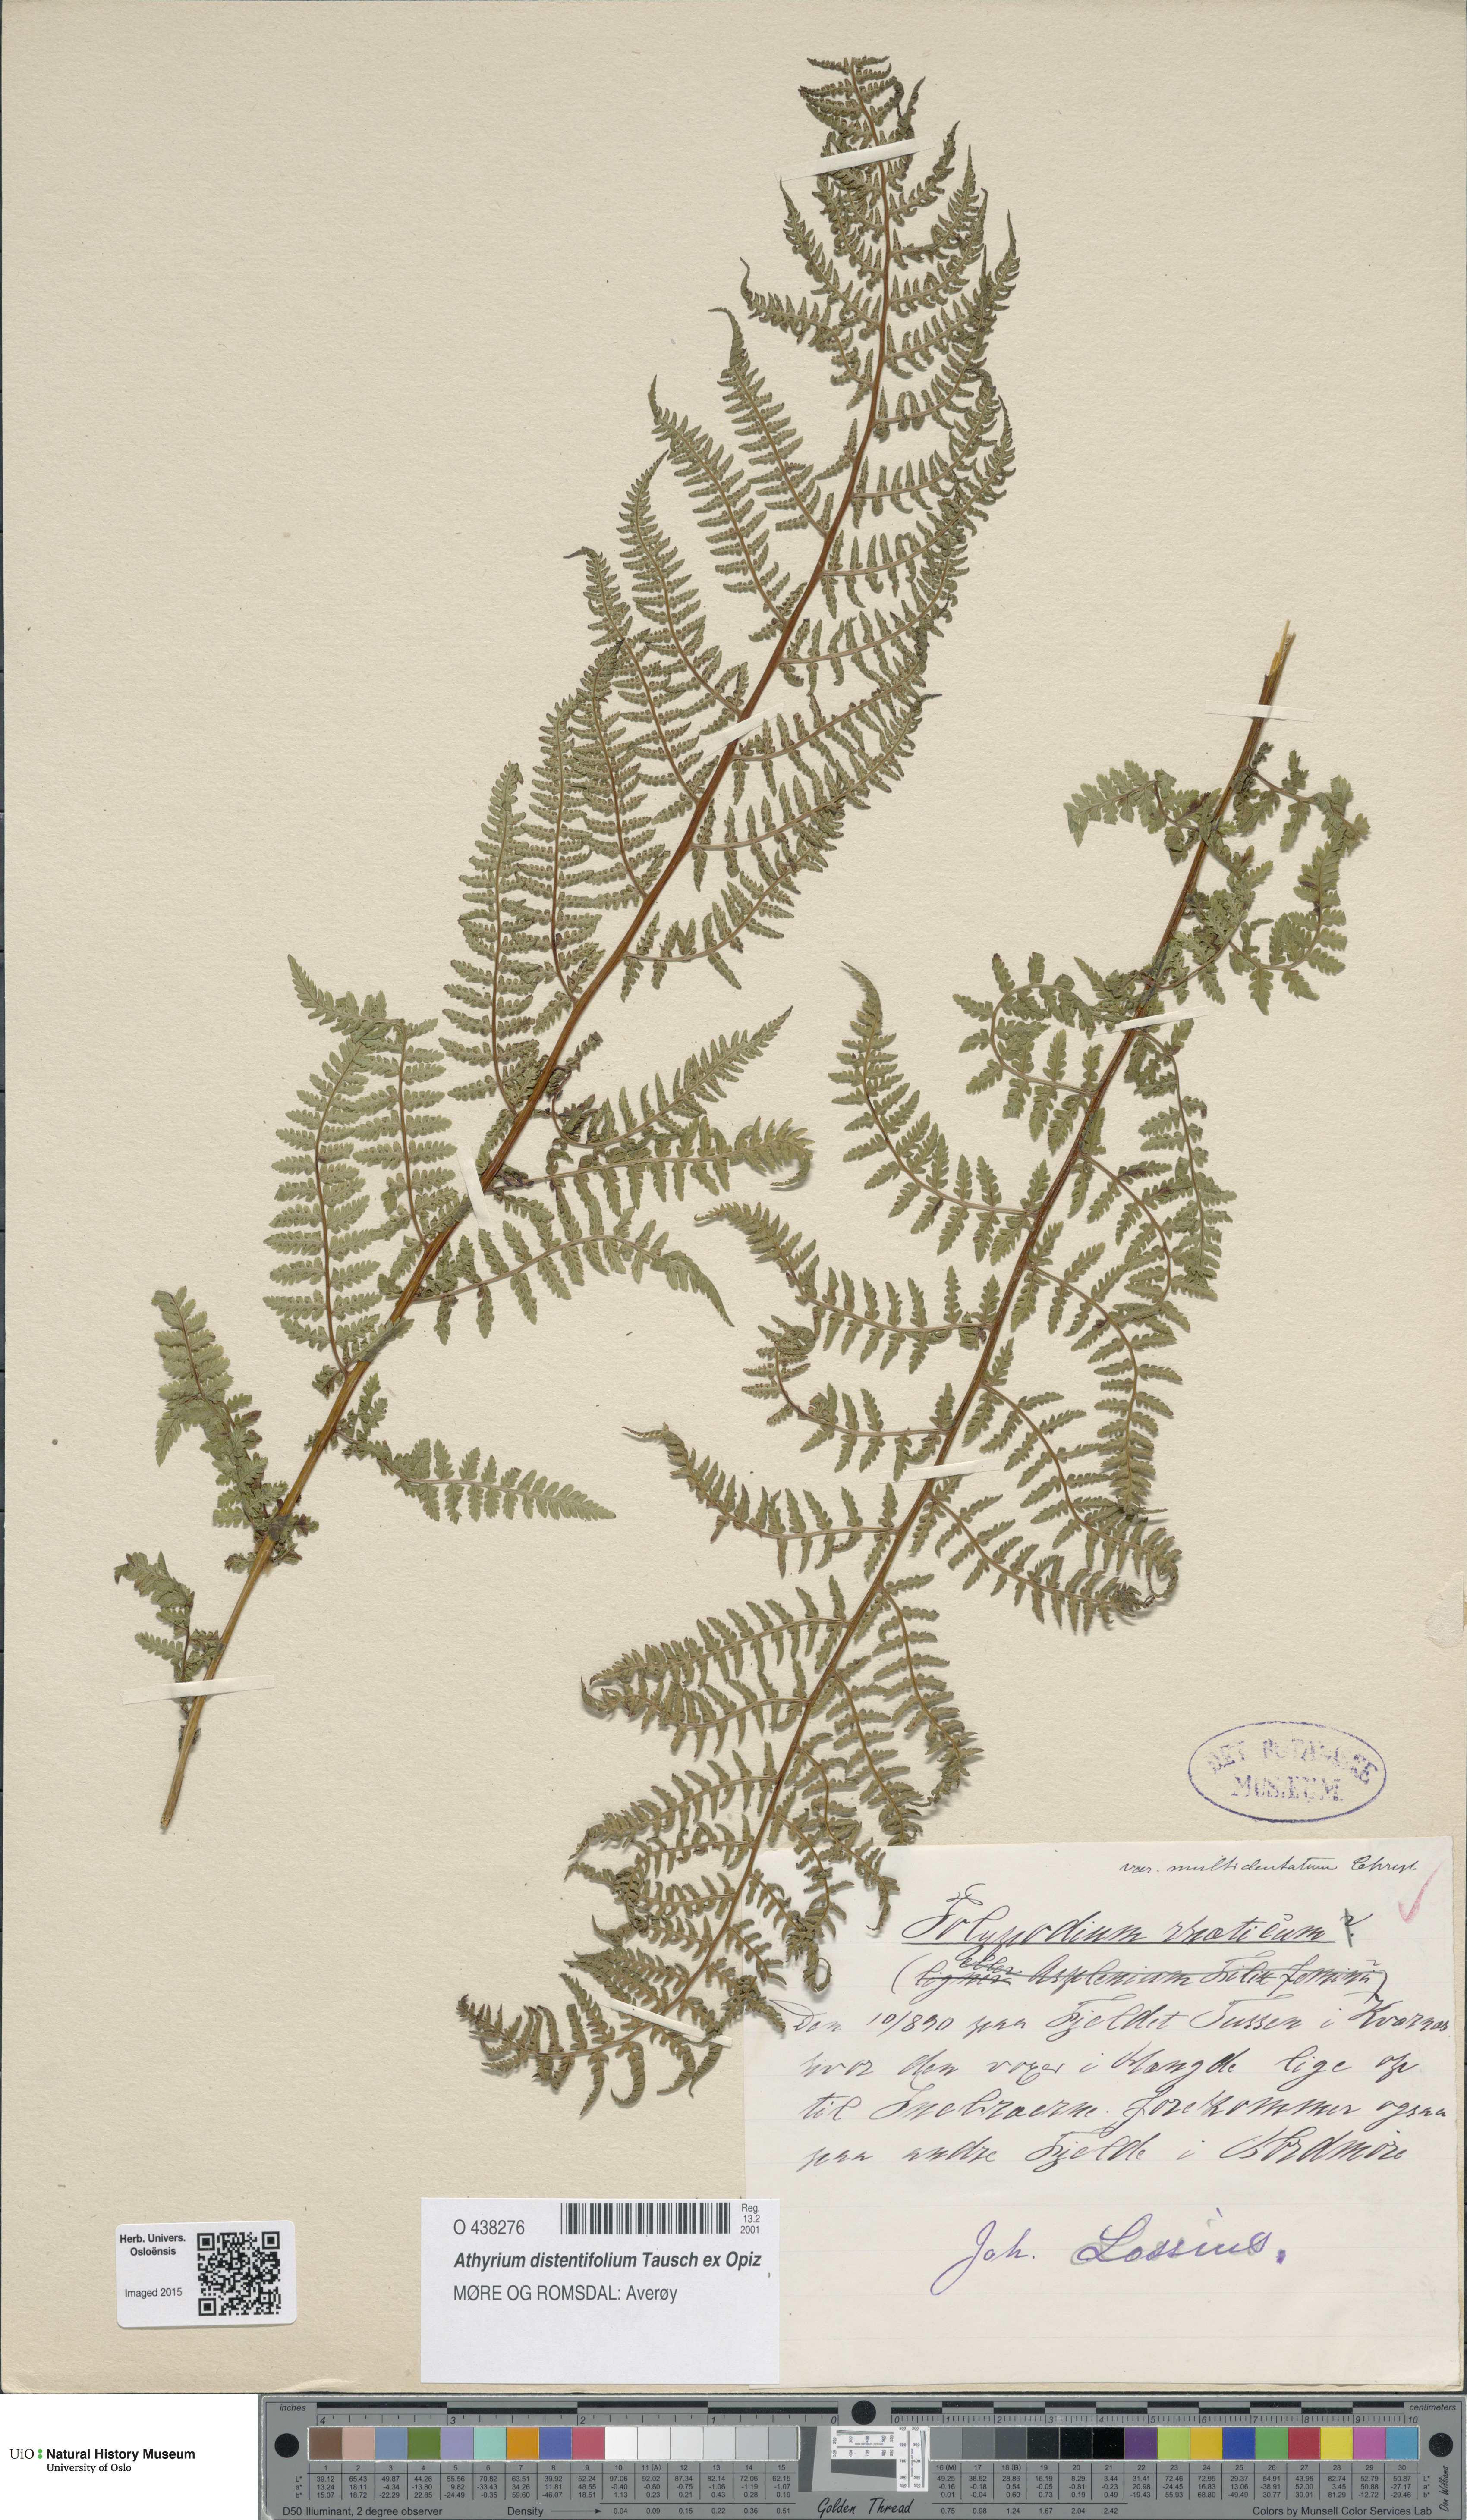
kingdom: Plantae
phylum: Tracheophyta
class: Polypodiopsida
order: Polypodiales
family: Athyriaceae
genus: Pseudathyrium
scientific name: Pseudathyrium alpestre
